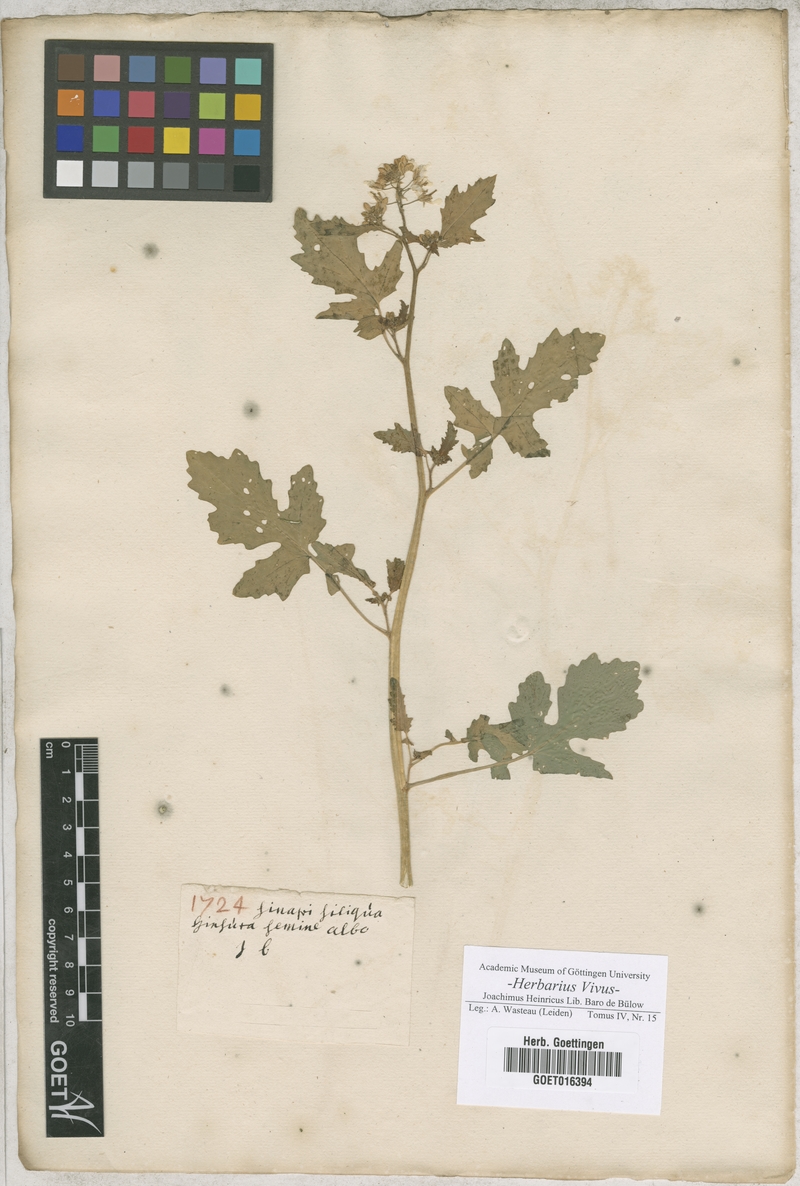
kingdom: Plantae
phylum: Tracheophyta
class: Magnoliopsida
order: Brassicales
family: Brassicaceae
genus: Sinapi
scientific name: Sinapi
